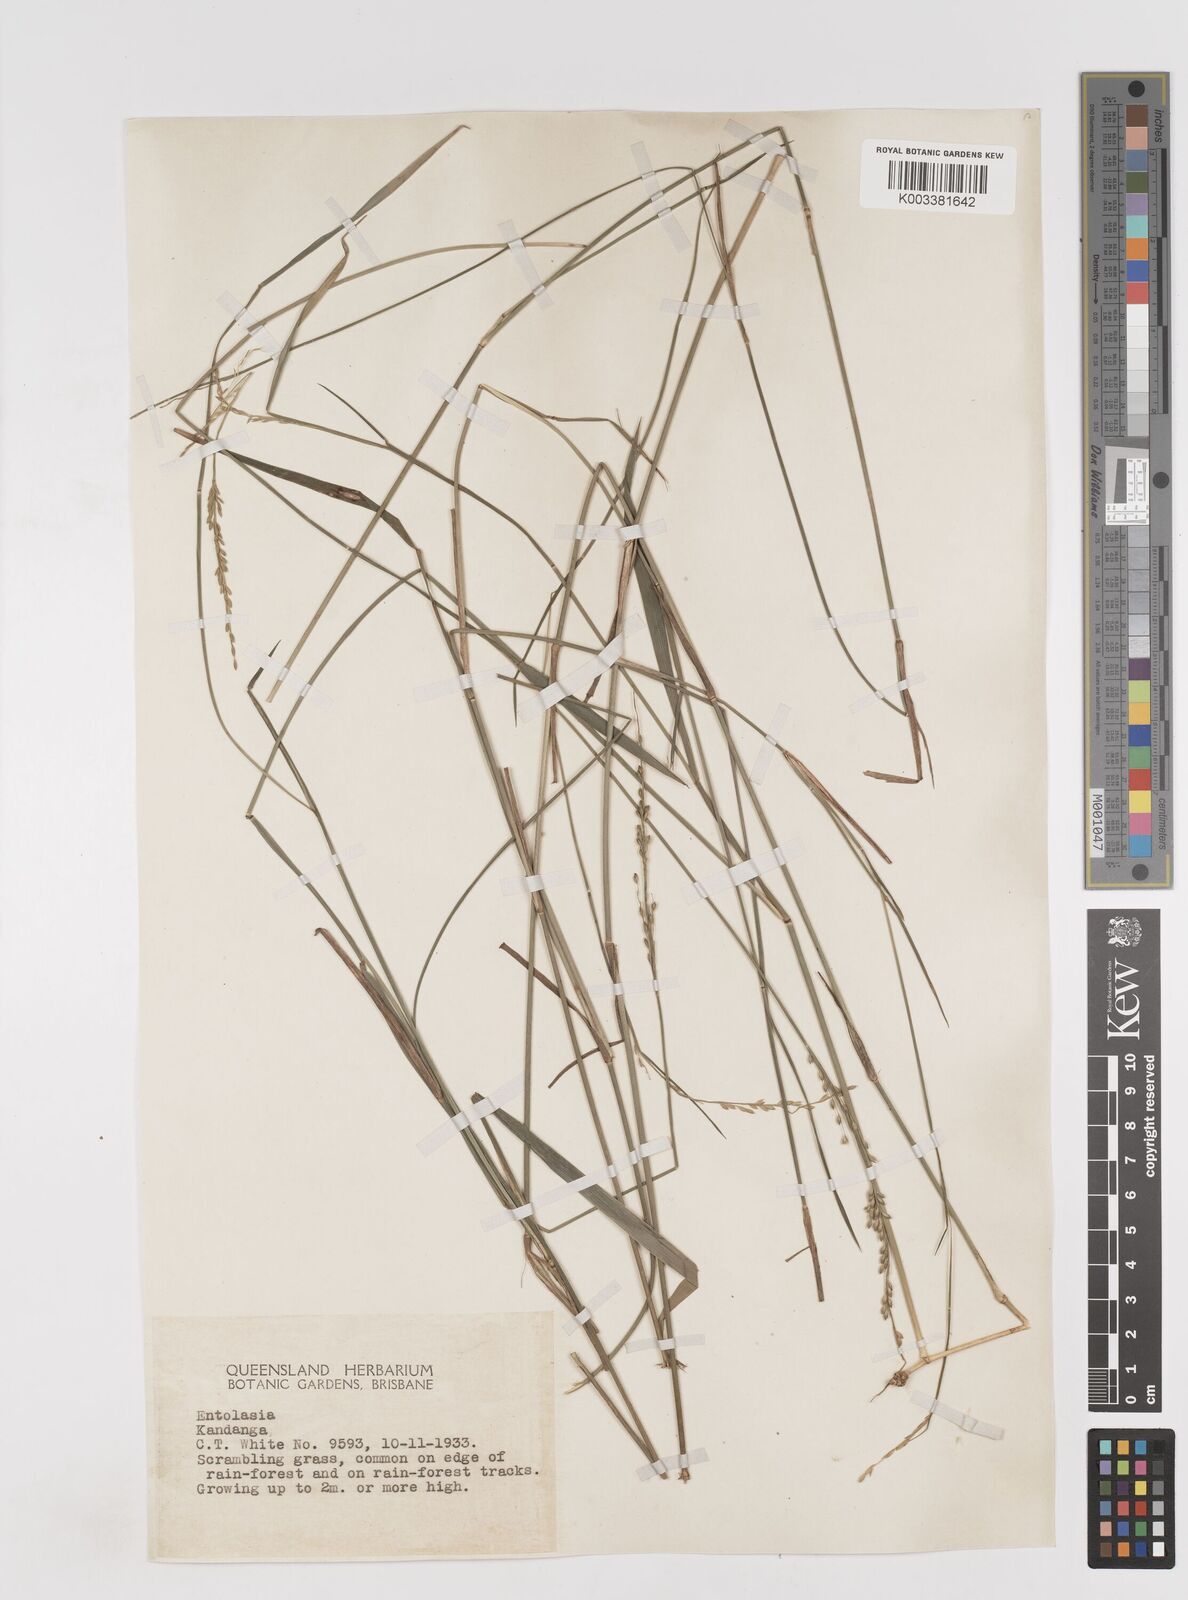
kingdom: Plantae
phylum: Tracheophyta
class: Liliopsida
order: Poales
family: Poaceae
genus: Entolasia
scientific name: Entolasia marginata
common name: Australian panicgrass
